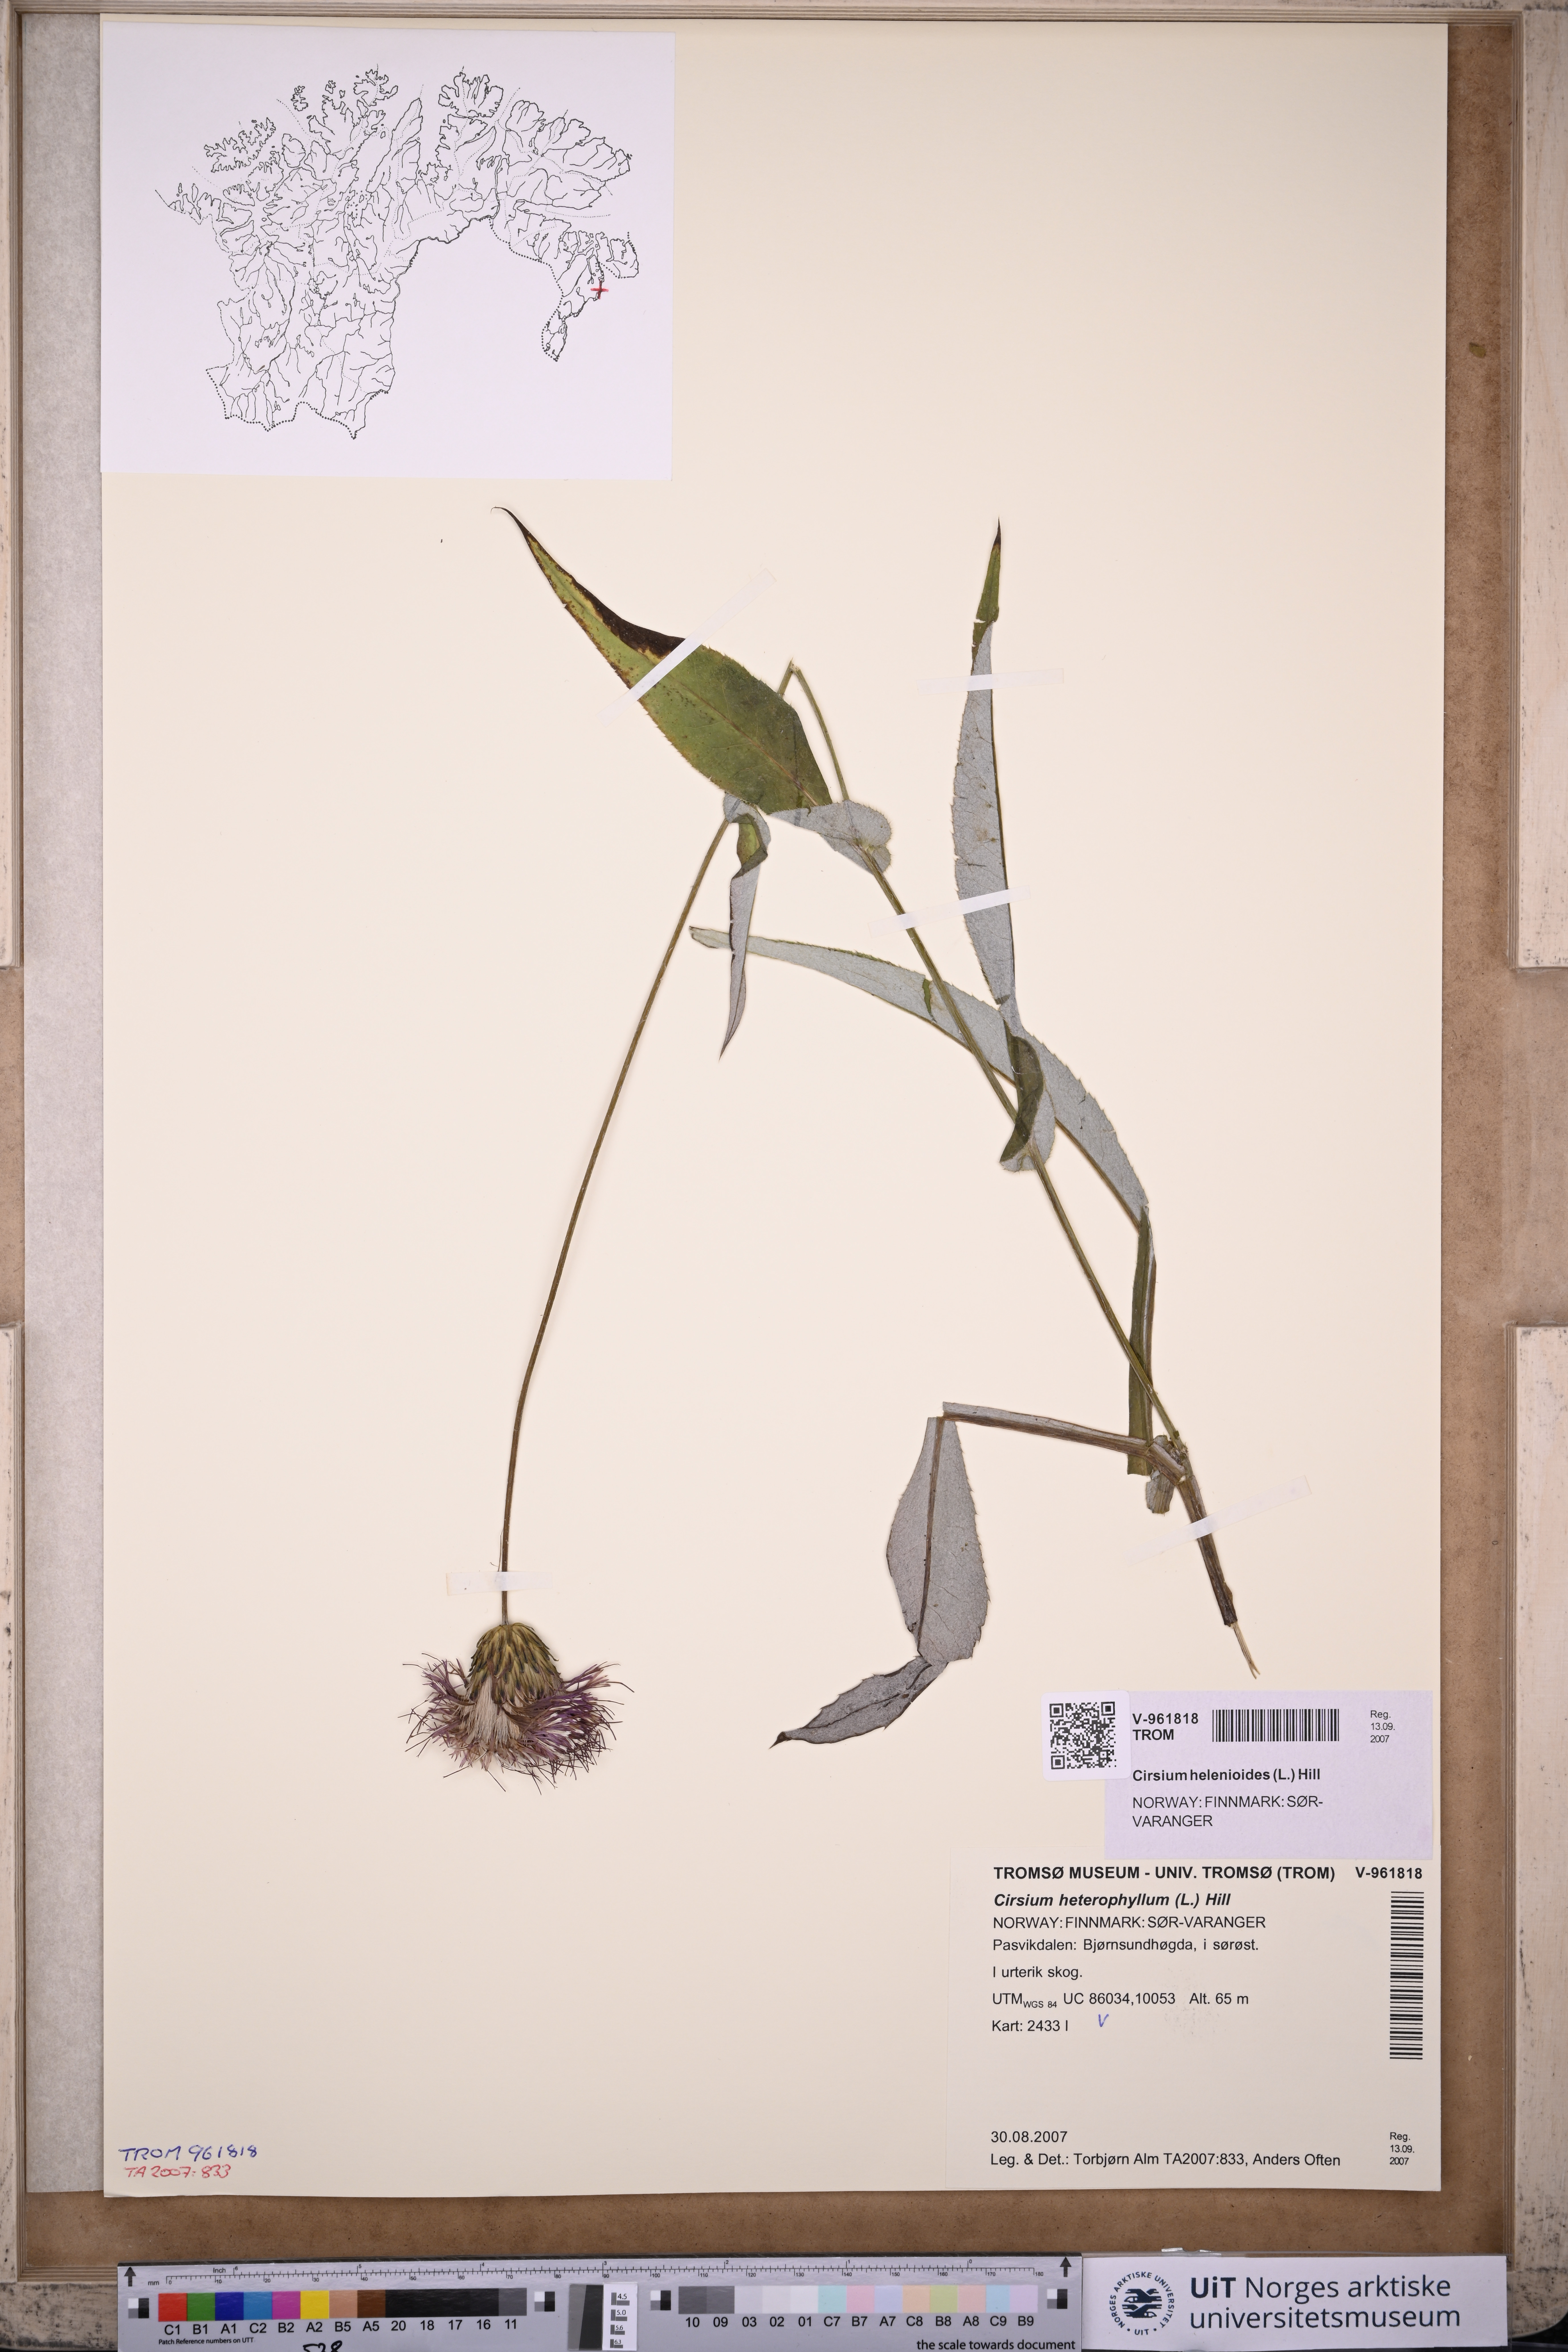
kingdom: Plantae
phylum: Tracheophyta
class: Magnoliopsida
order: Asterales
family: Asteraceae
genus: Cirsium
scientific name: Cirsium heterophyllum
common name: Melancholy thistle
